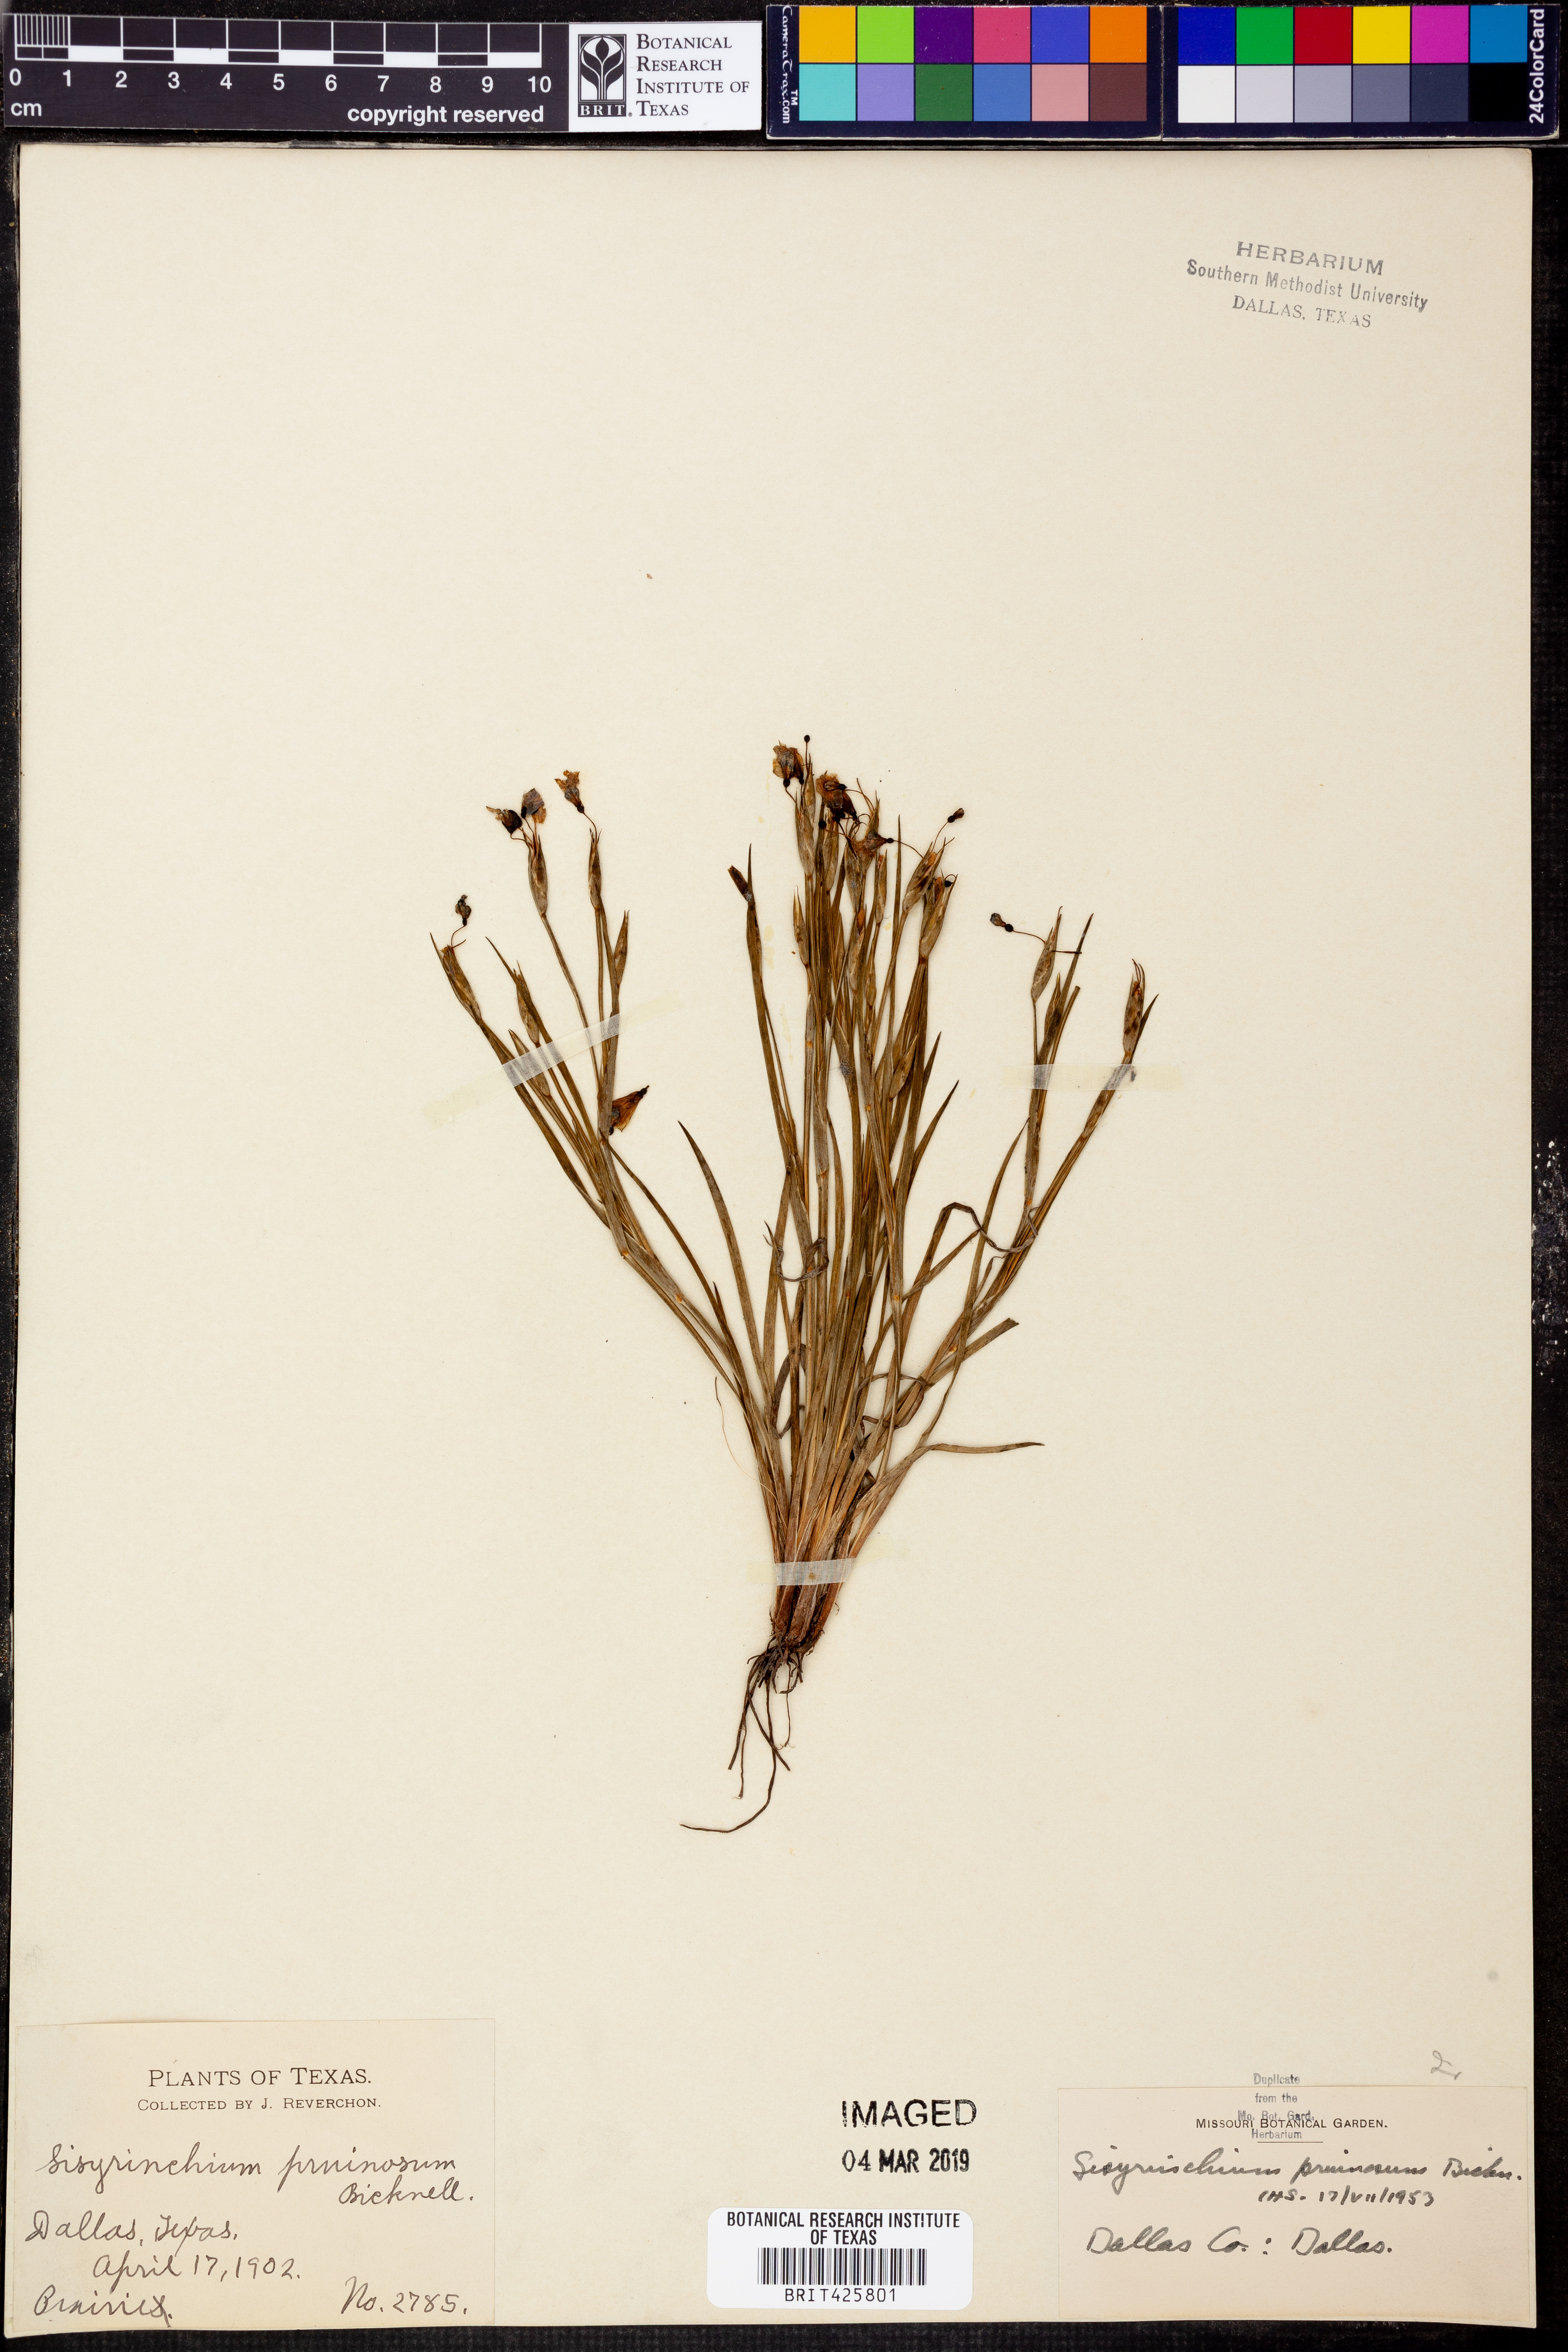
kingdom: Plantae
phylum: Tracheophyta
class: Liliopsida
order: Asparagales
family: Iridaceae
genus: Sisyrinchium
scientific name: Sisyrinchium pruinosum
